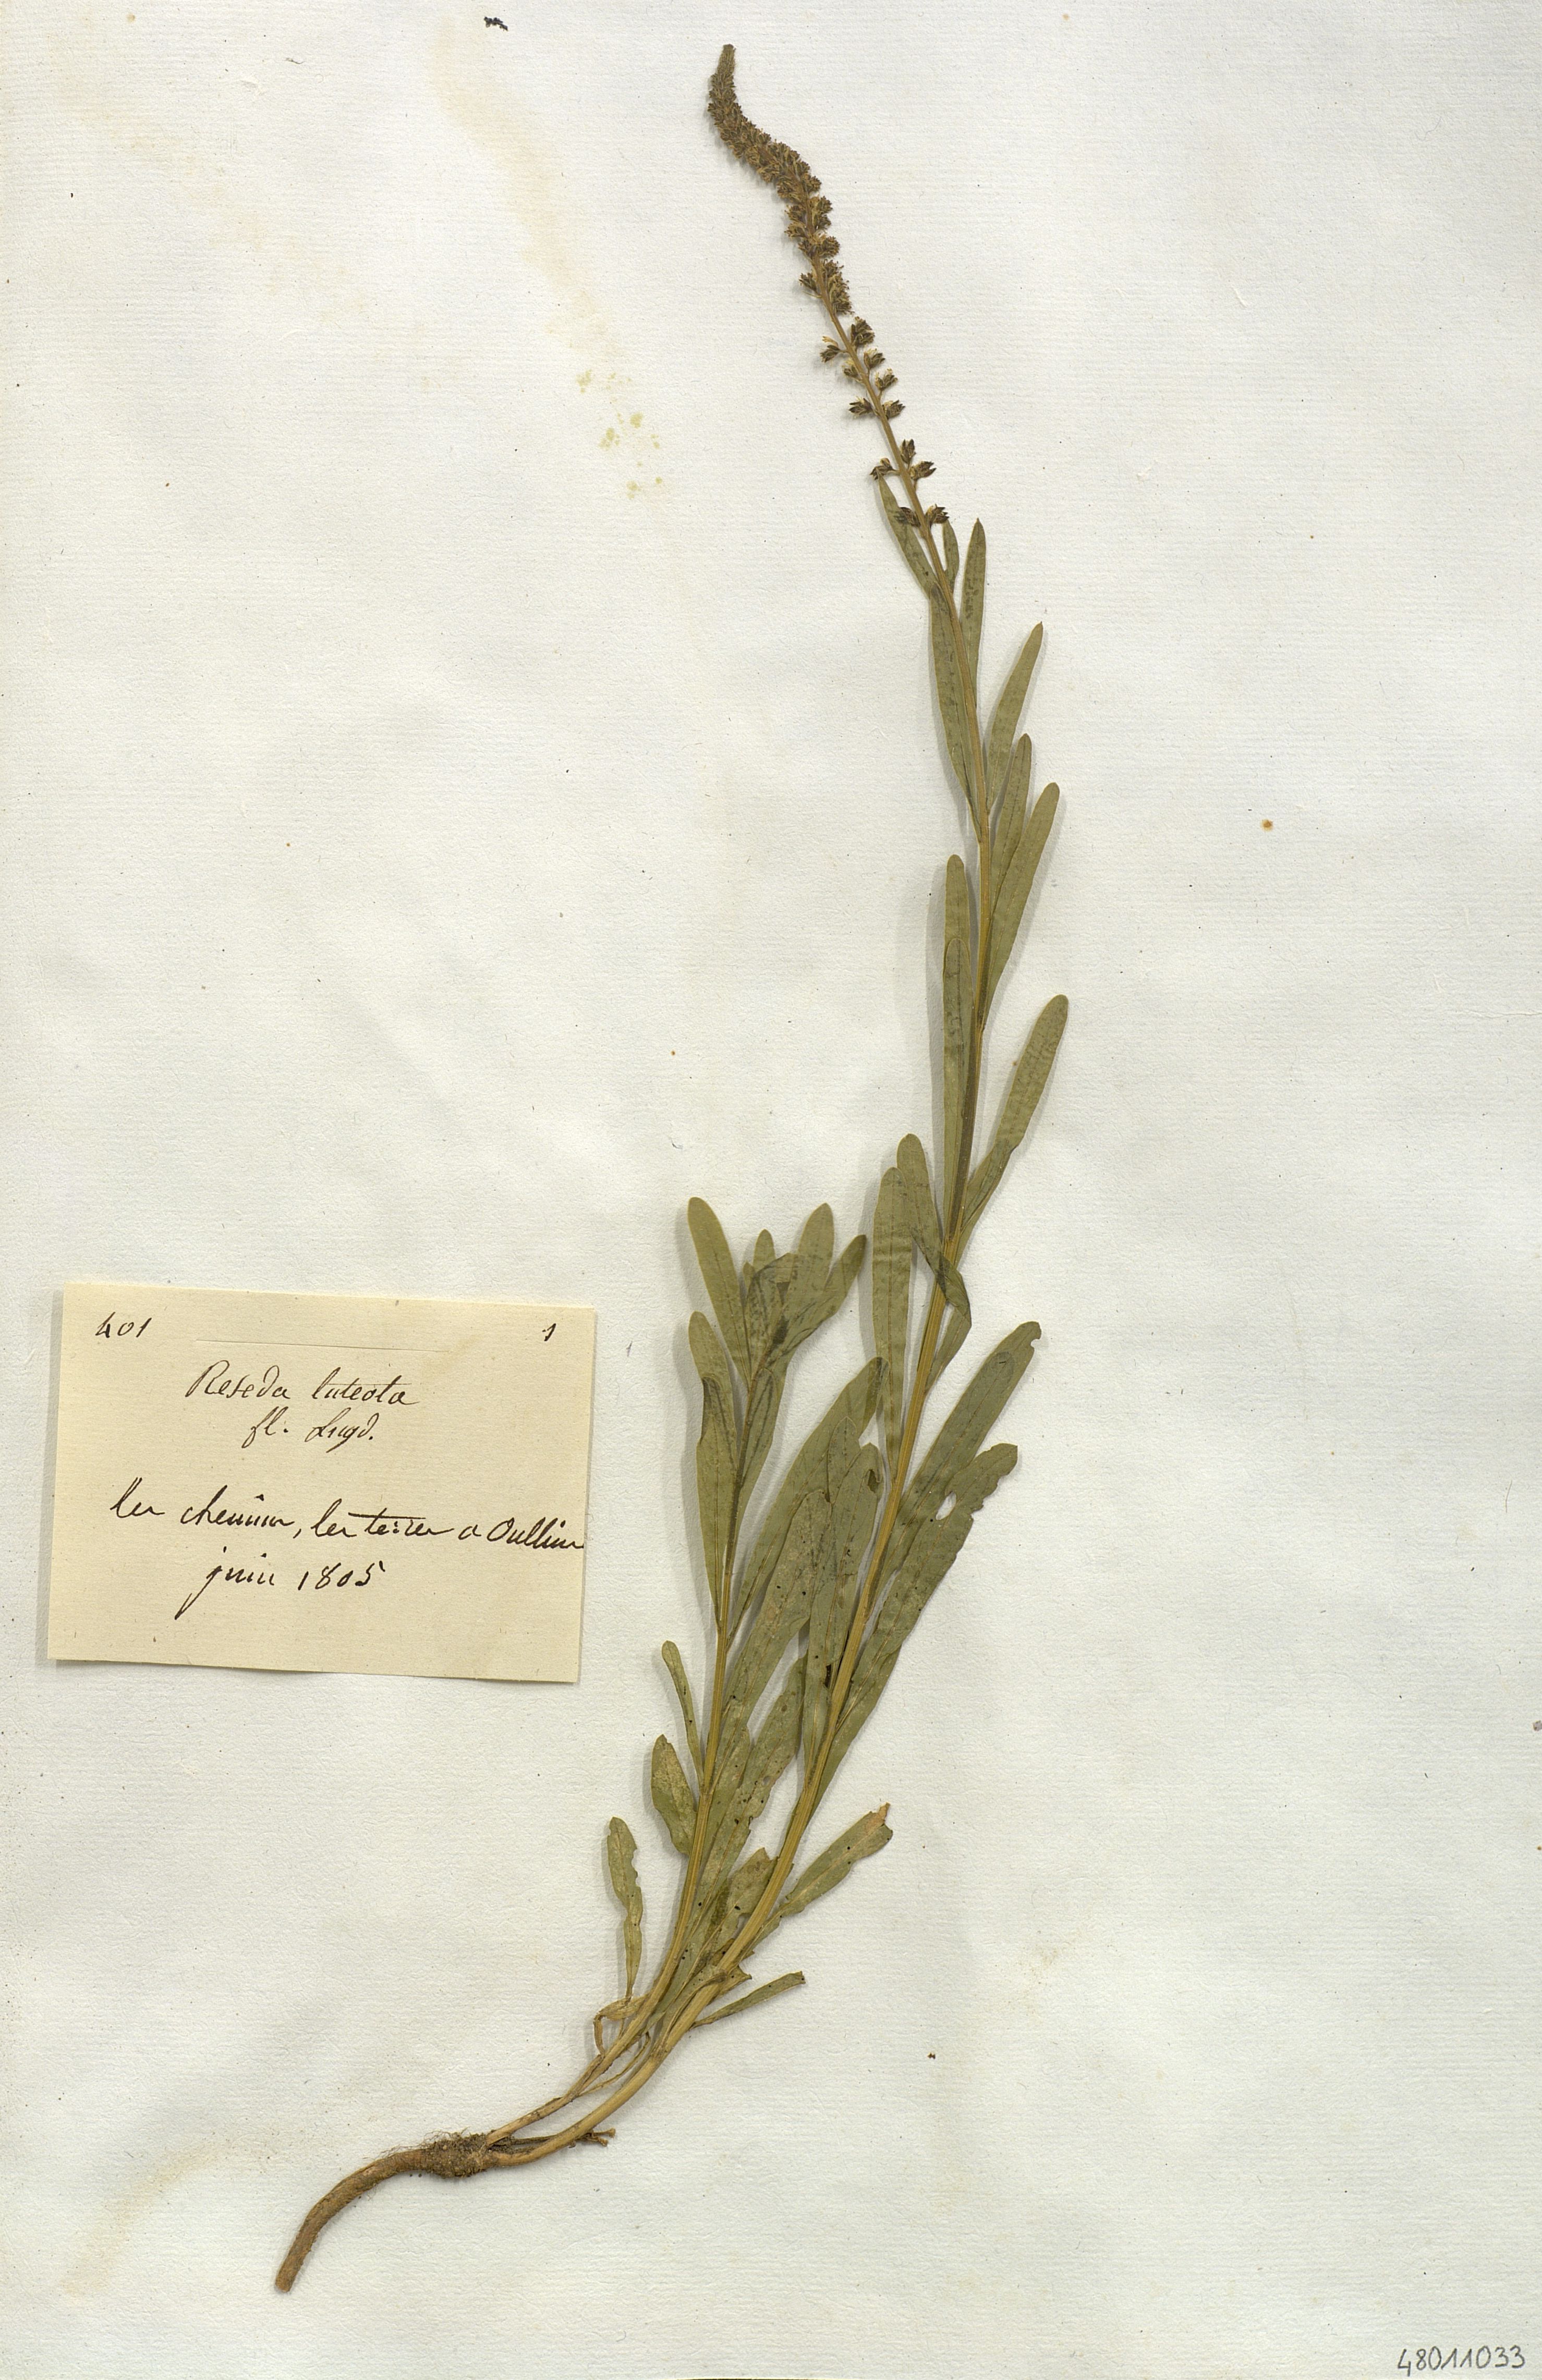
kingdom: Plantae
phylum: Tracheophyta
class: Magnoliopsida
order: Brassicales
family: Resedaceae
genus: Reseda
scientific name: Reseda luteola
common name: Weld
